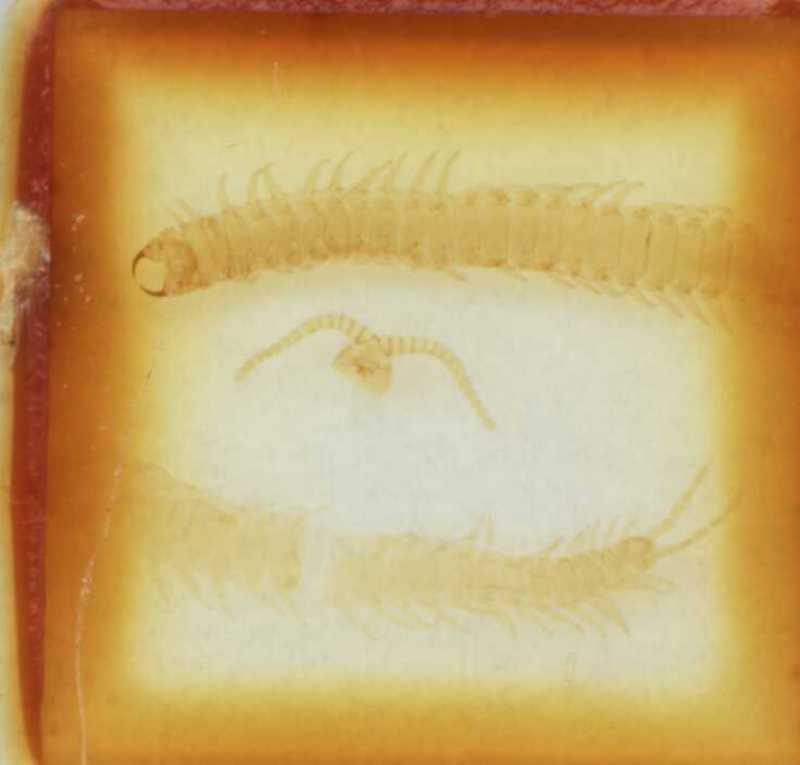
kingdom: Animalia
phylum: Arthropoda
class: Chilopoda
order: Geophilomorpha
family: Geophilidae
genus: Tweediphilus
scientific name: Tweediphilus malaccanus
